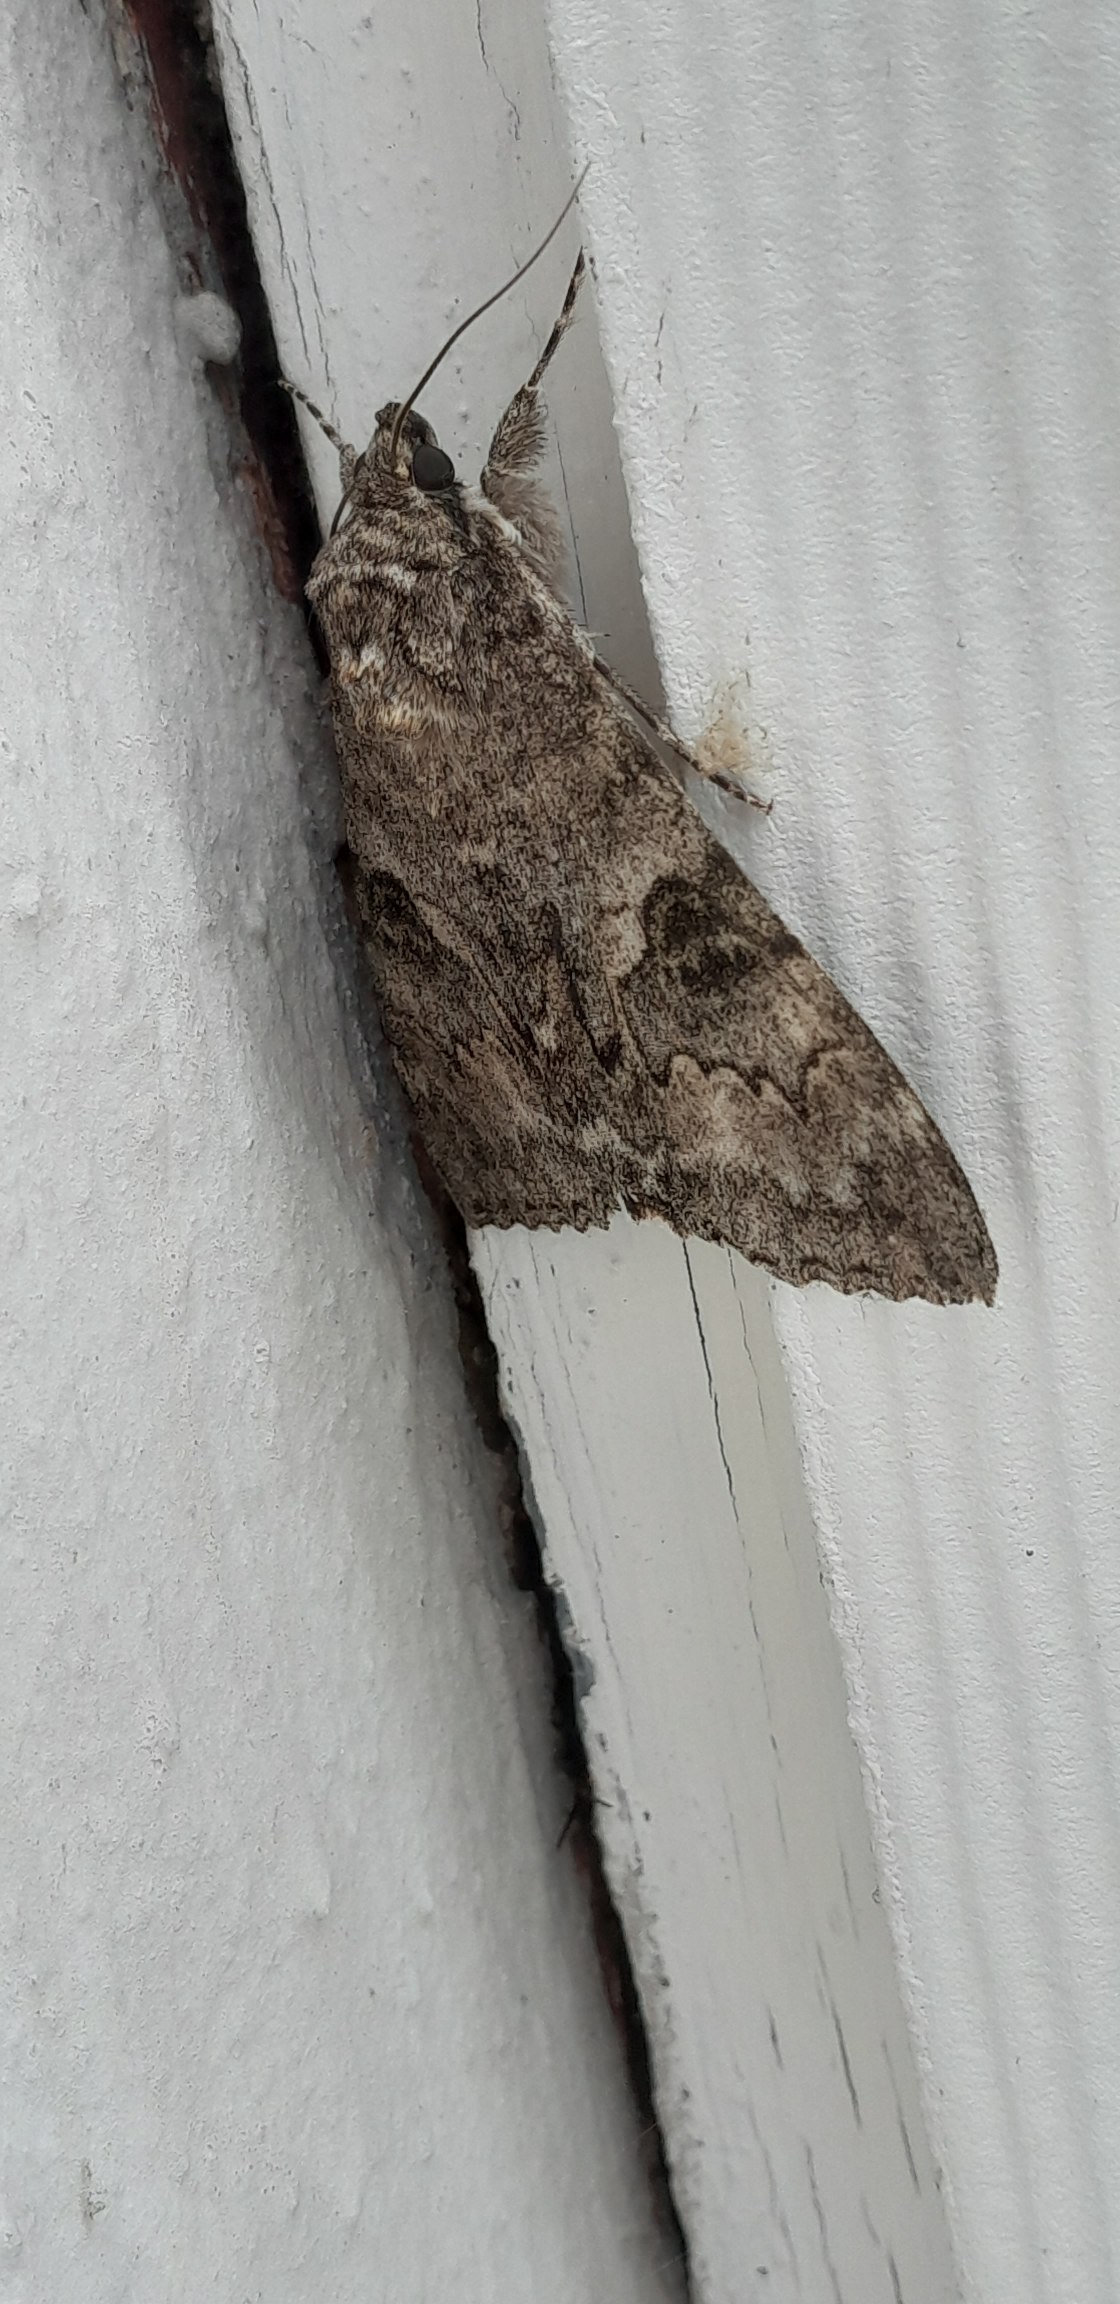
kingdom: Animalia
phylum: Arthropoda
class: Insecta
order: Lepidoptera
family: Erebidae
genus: Catocala
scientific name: Catocala nupta
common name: Rødt ordensbånd
